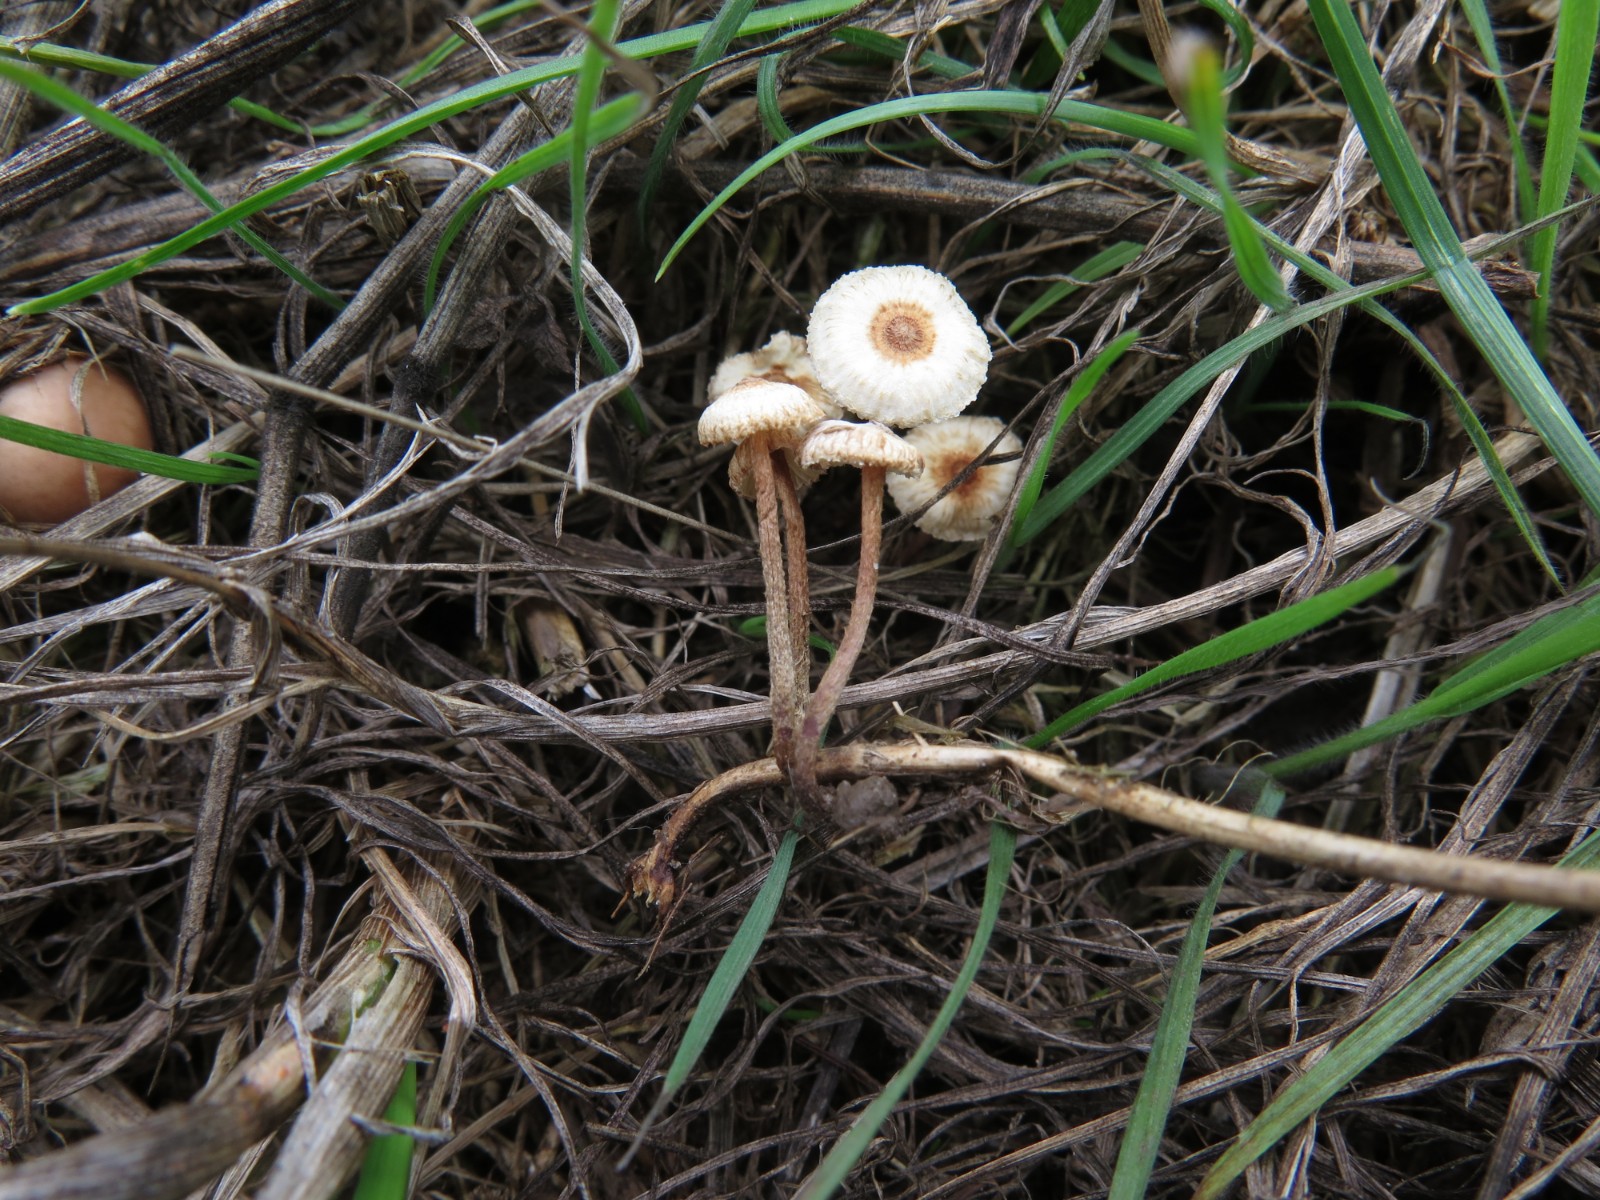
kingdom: Fungi
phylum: Basidiomycota
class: Agaricomycetes
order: Agaricales
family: Marasmiaceae
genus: Crinipellis
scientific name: Crinipellis scabella
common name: børstefod
